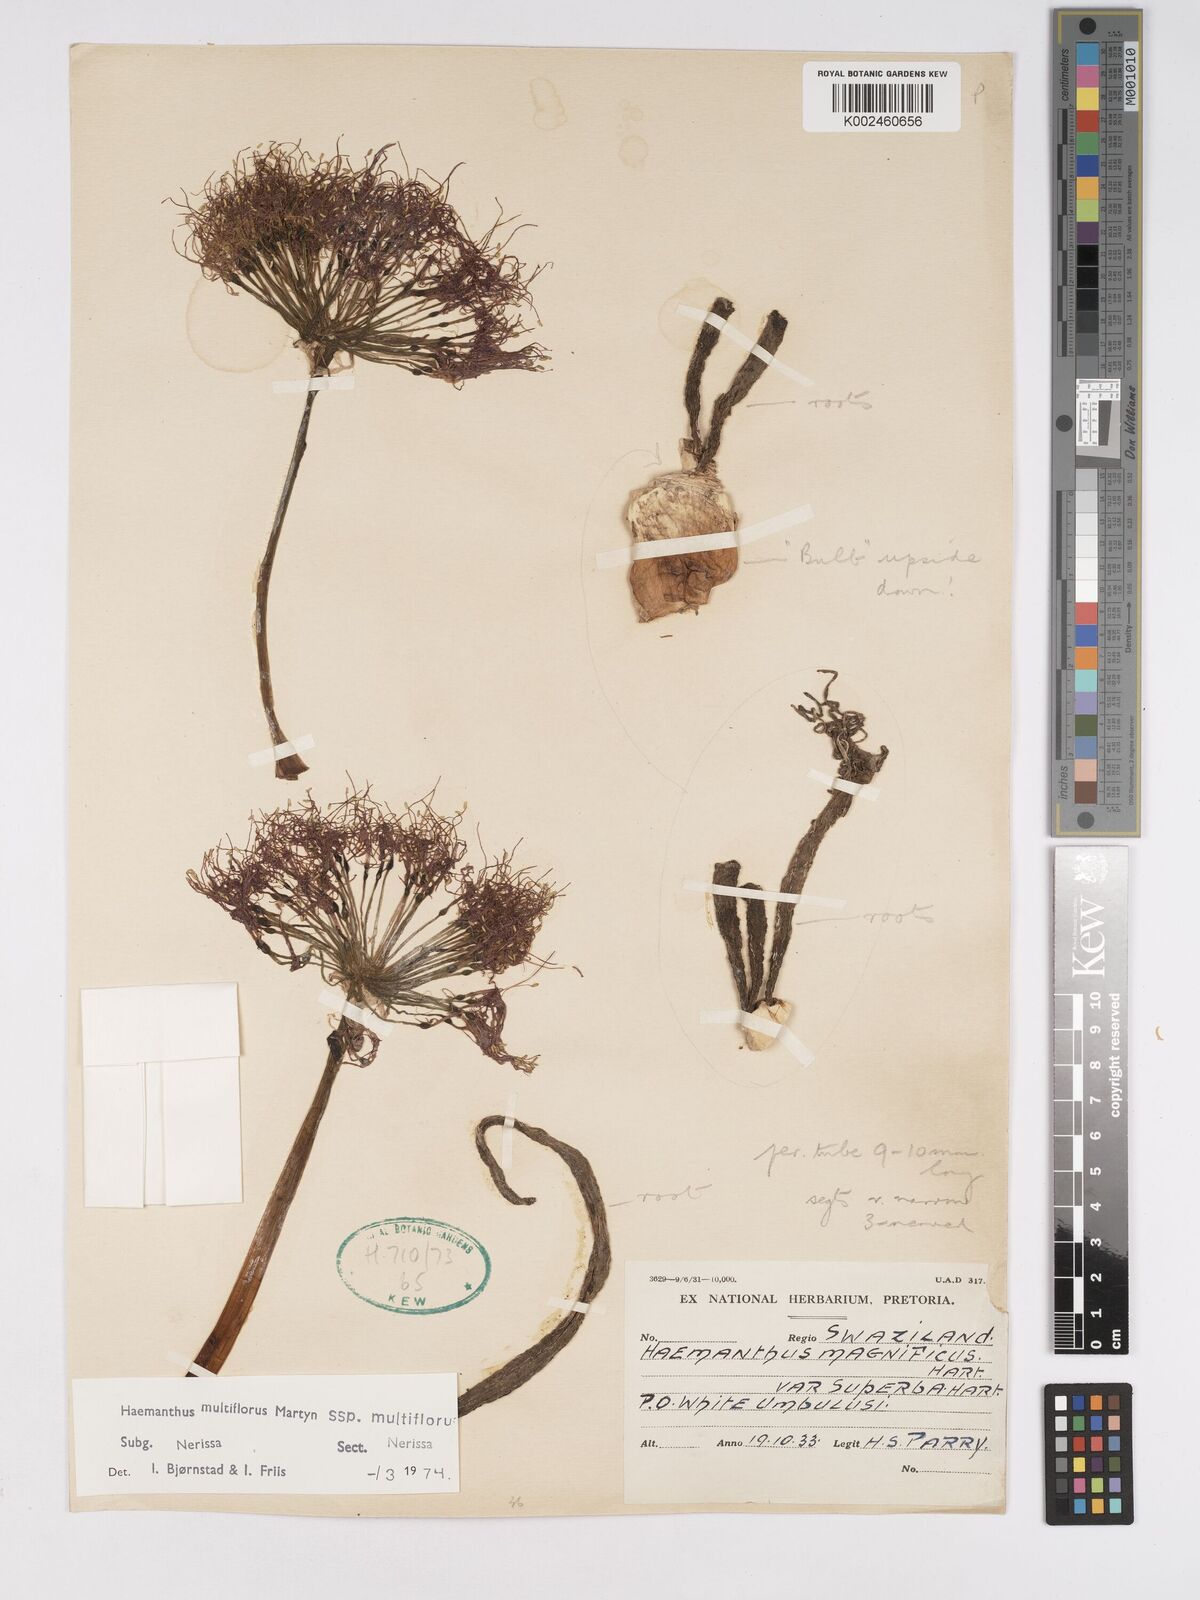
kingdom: Plantae
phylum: Tracheophyta
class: Liliopsida
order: Asparagales
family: Amaryllidaceae
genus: Scadoxus
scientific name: Scadoxus multiflorus
